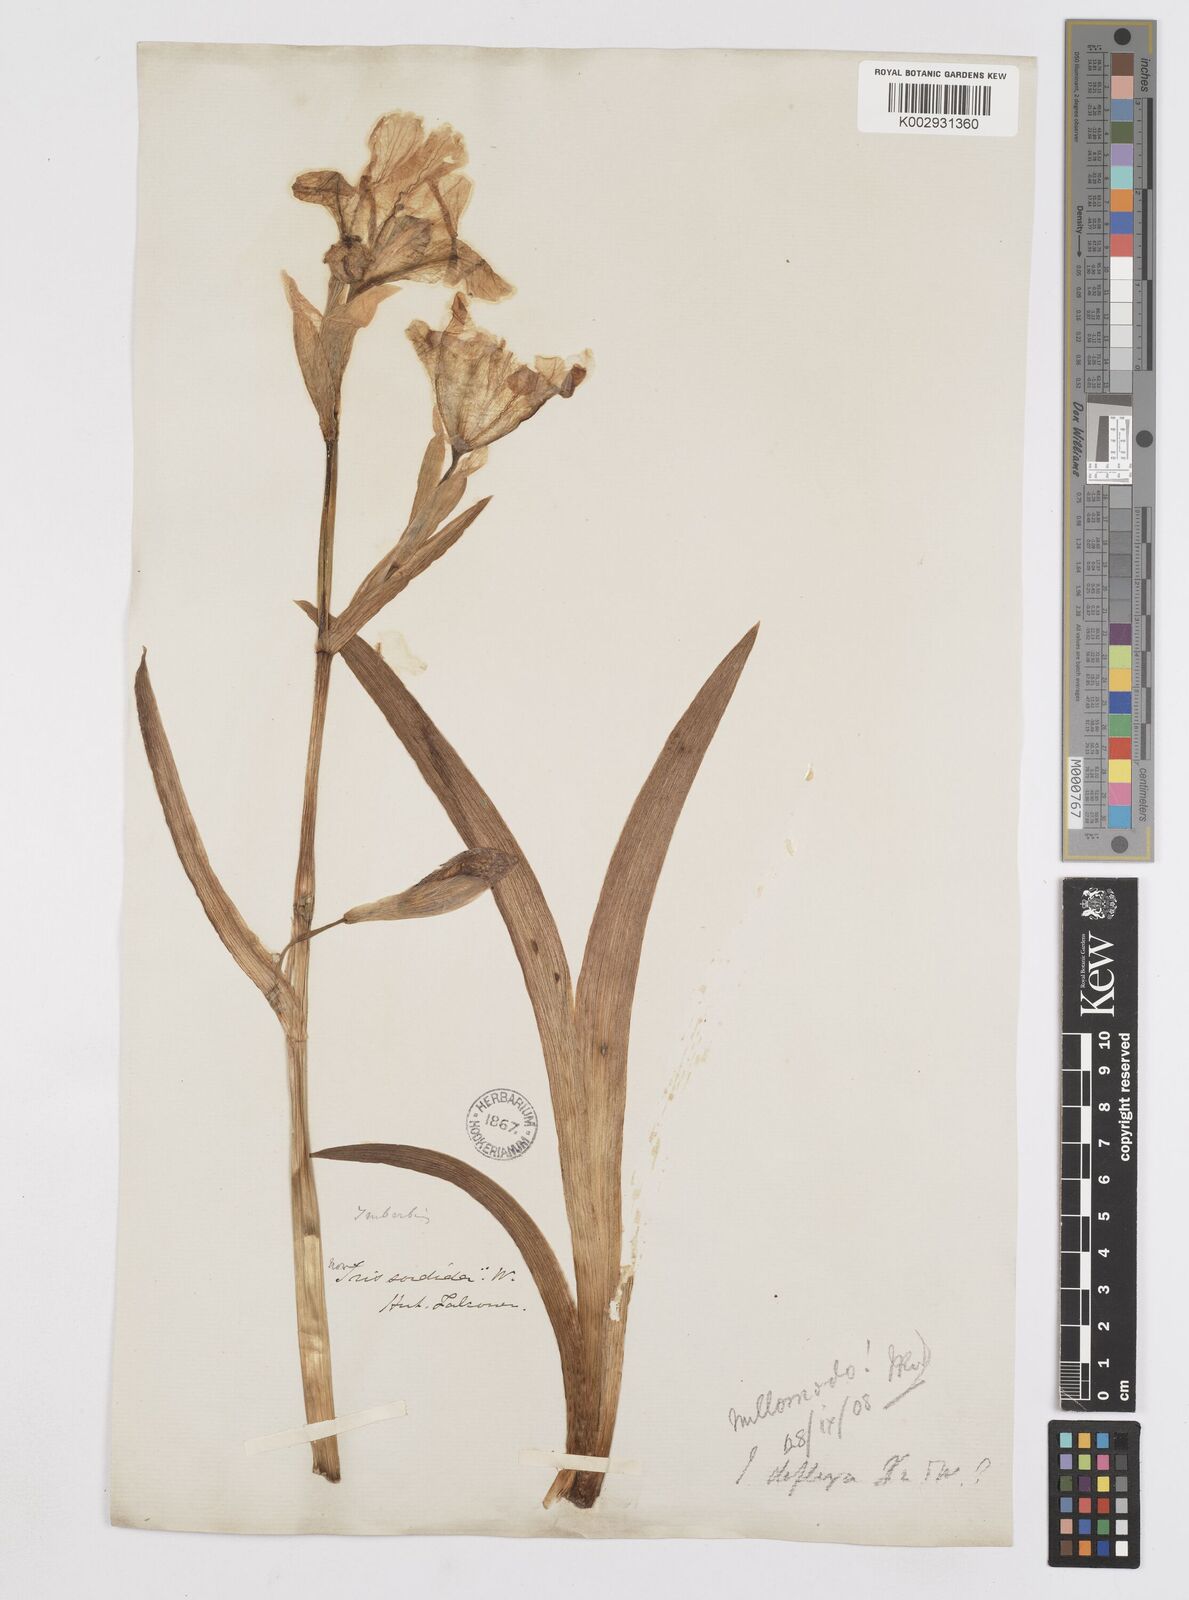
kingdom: Plantae
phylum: Tracheophyta
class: Liliopsida
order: Asparagales
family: Iridaceae
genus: Iris
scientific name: Iris halophila
